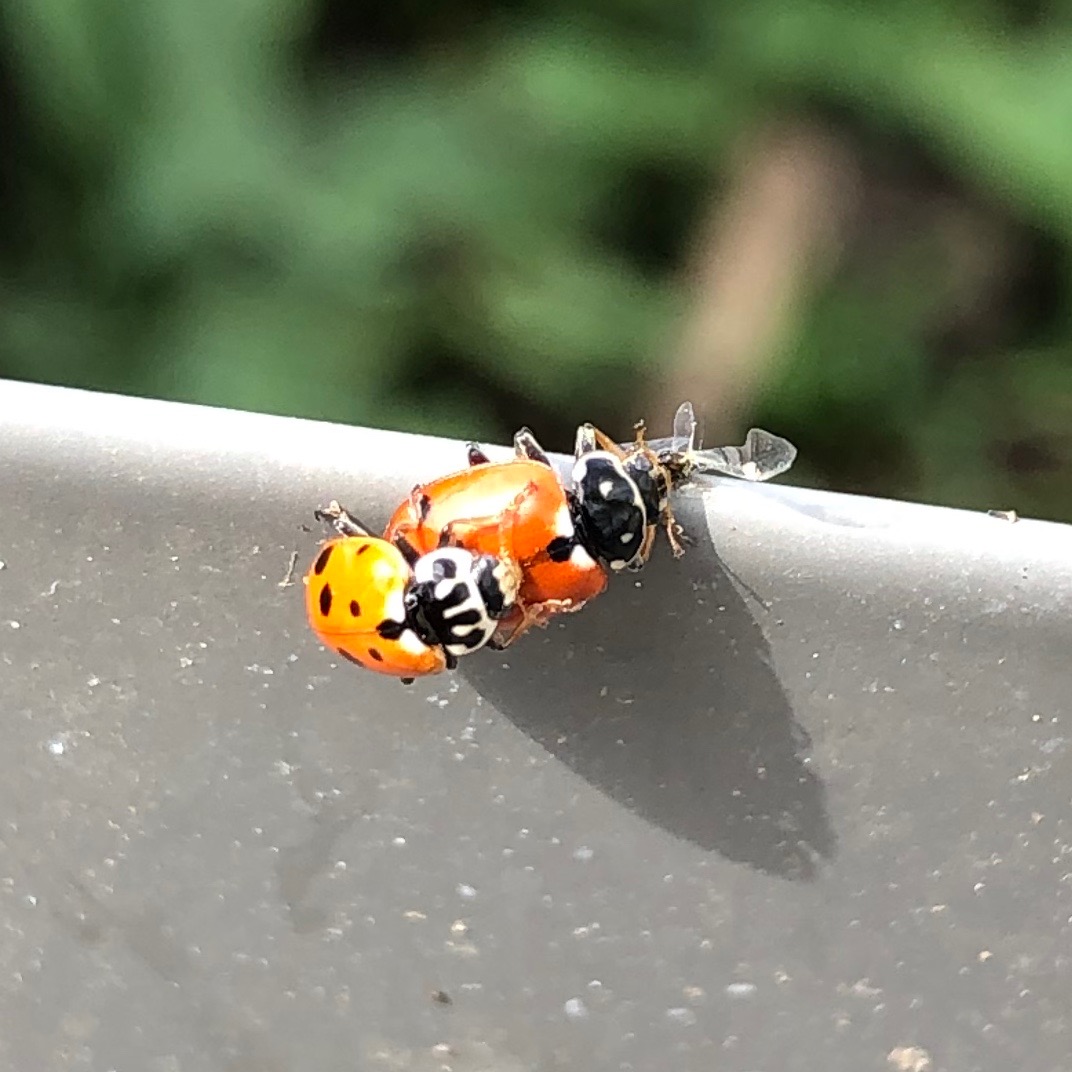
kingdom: Animalia
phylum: Arthropoda
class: Insecta
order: Coleoptera
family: Coccinellidae
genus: Hippodamia
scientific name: Hippodamia variegata
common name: Adonis' mariehøne
